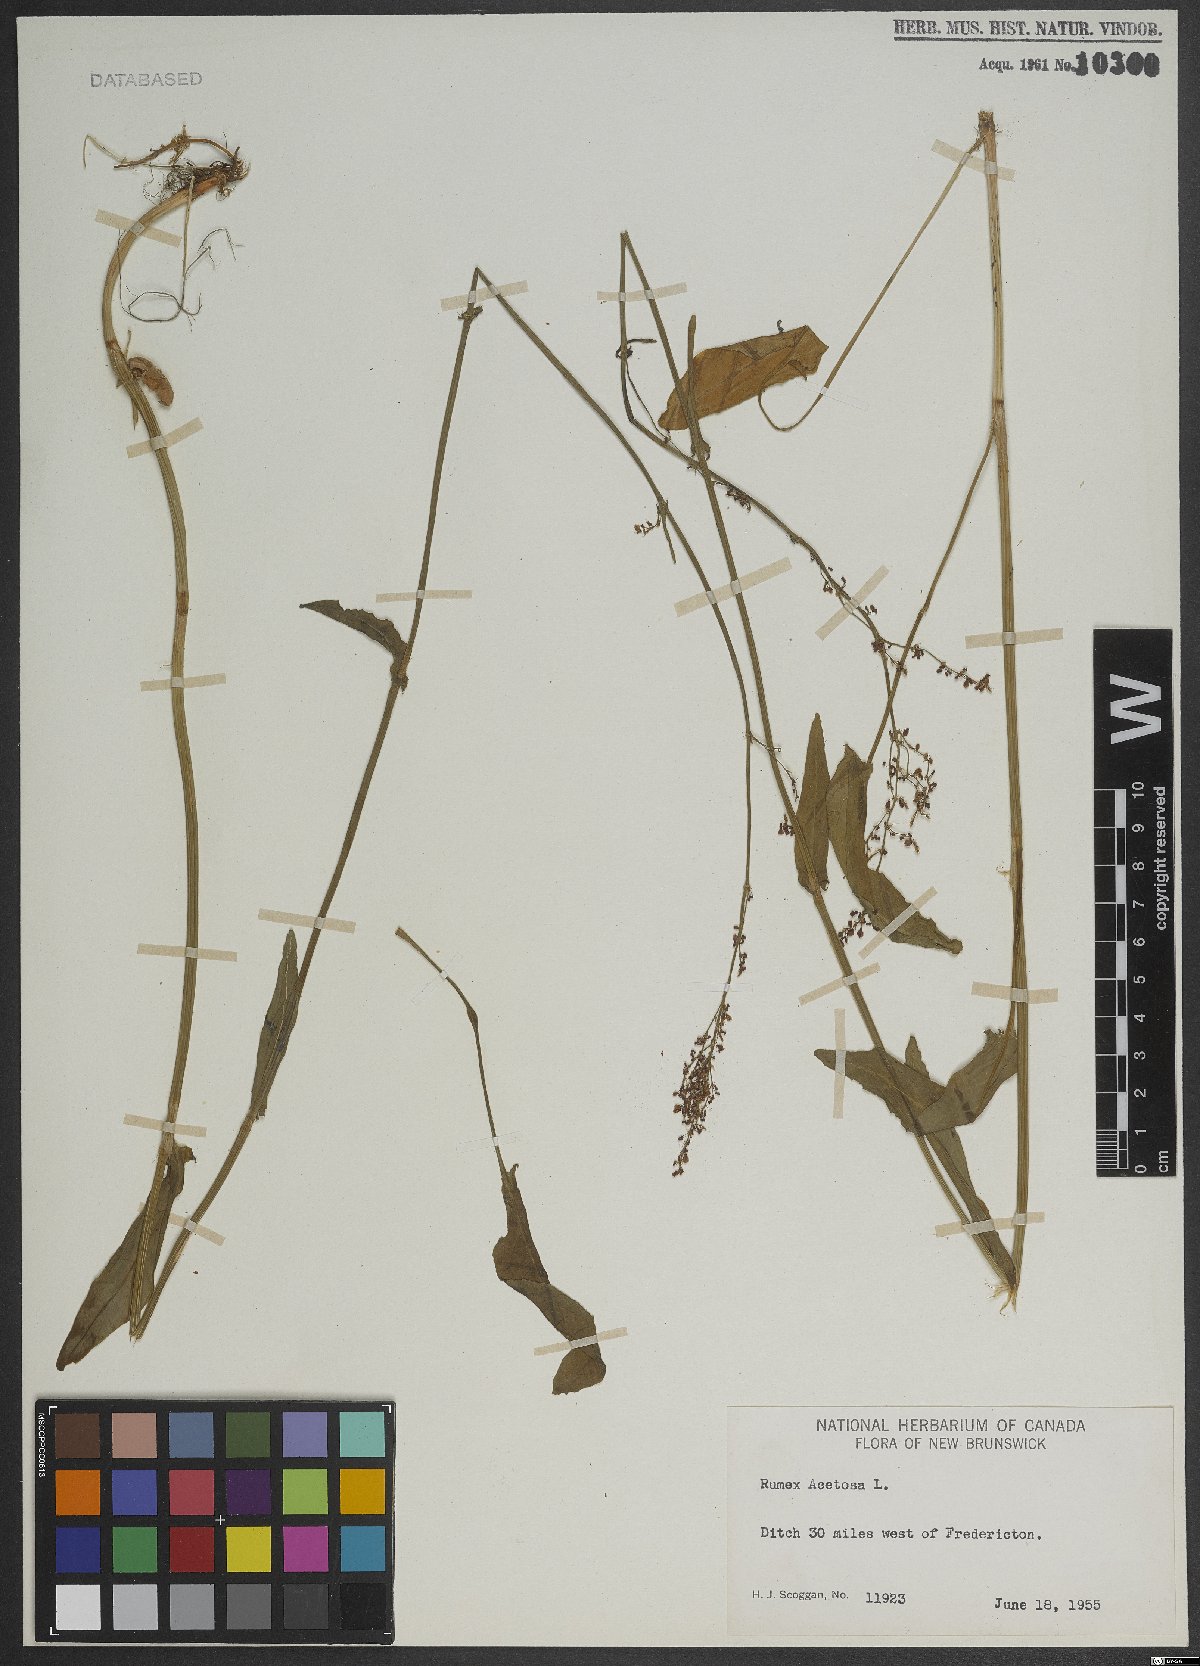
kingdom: Plantae
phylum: Tracheophyta
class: Magnoliopsida
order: Caryophyllales
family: Polygonaceae
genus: Rumex
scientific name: Rumex acetosa
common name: Garden sorrel
